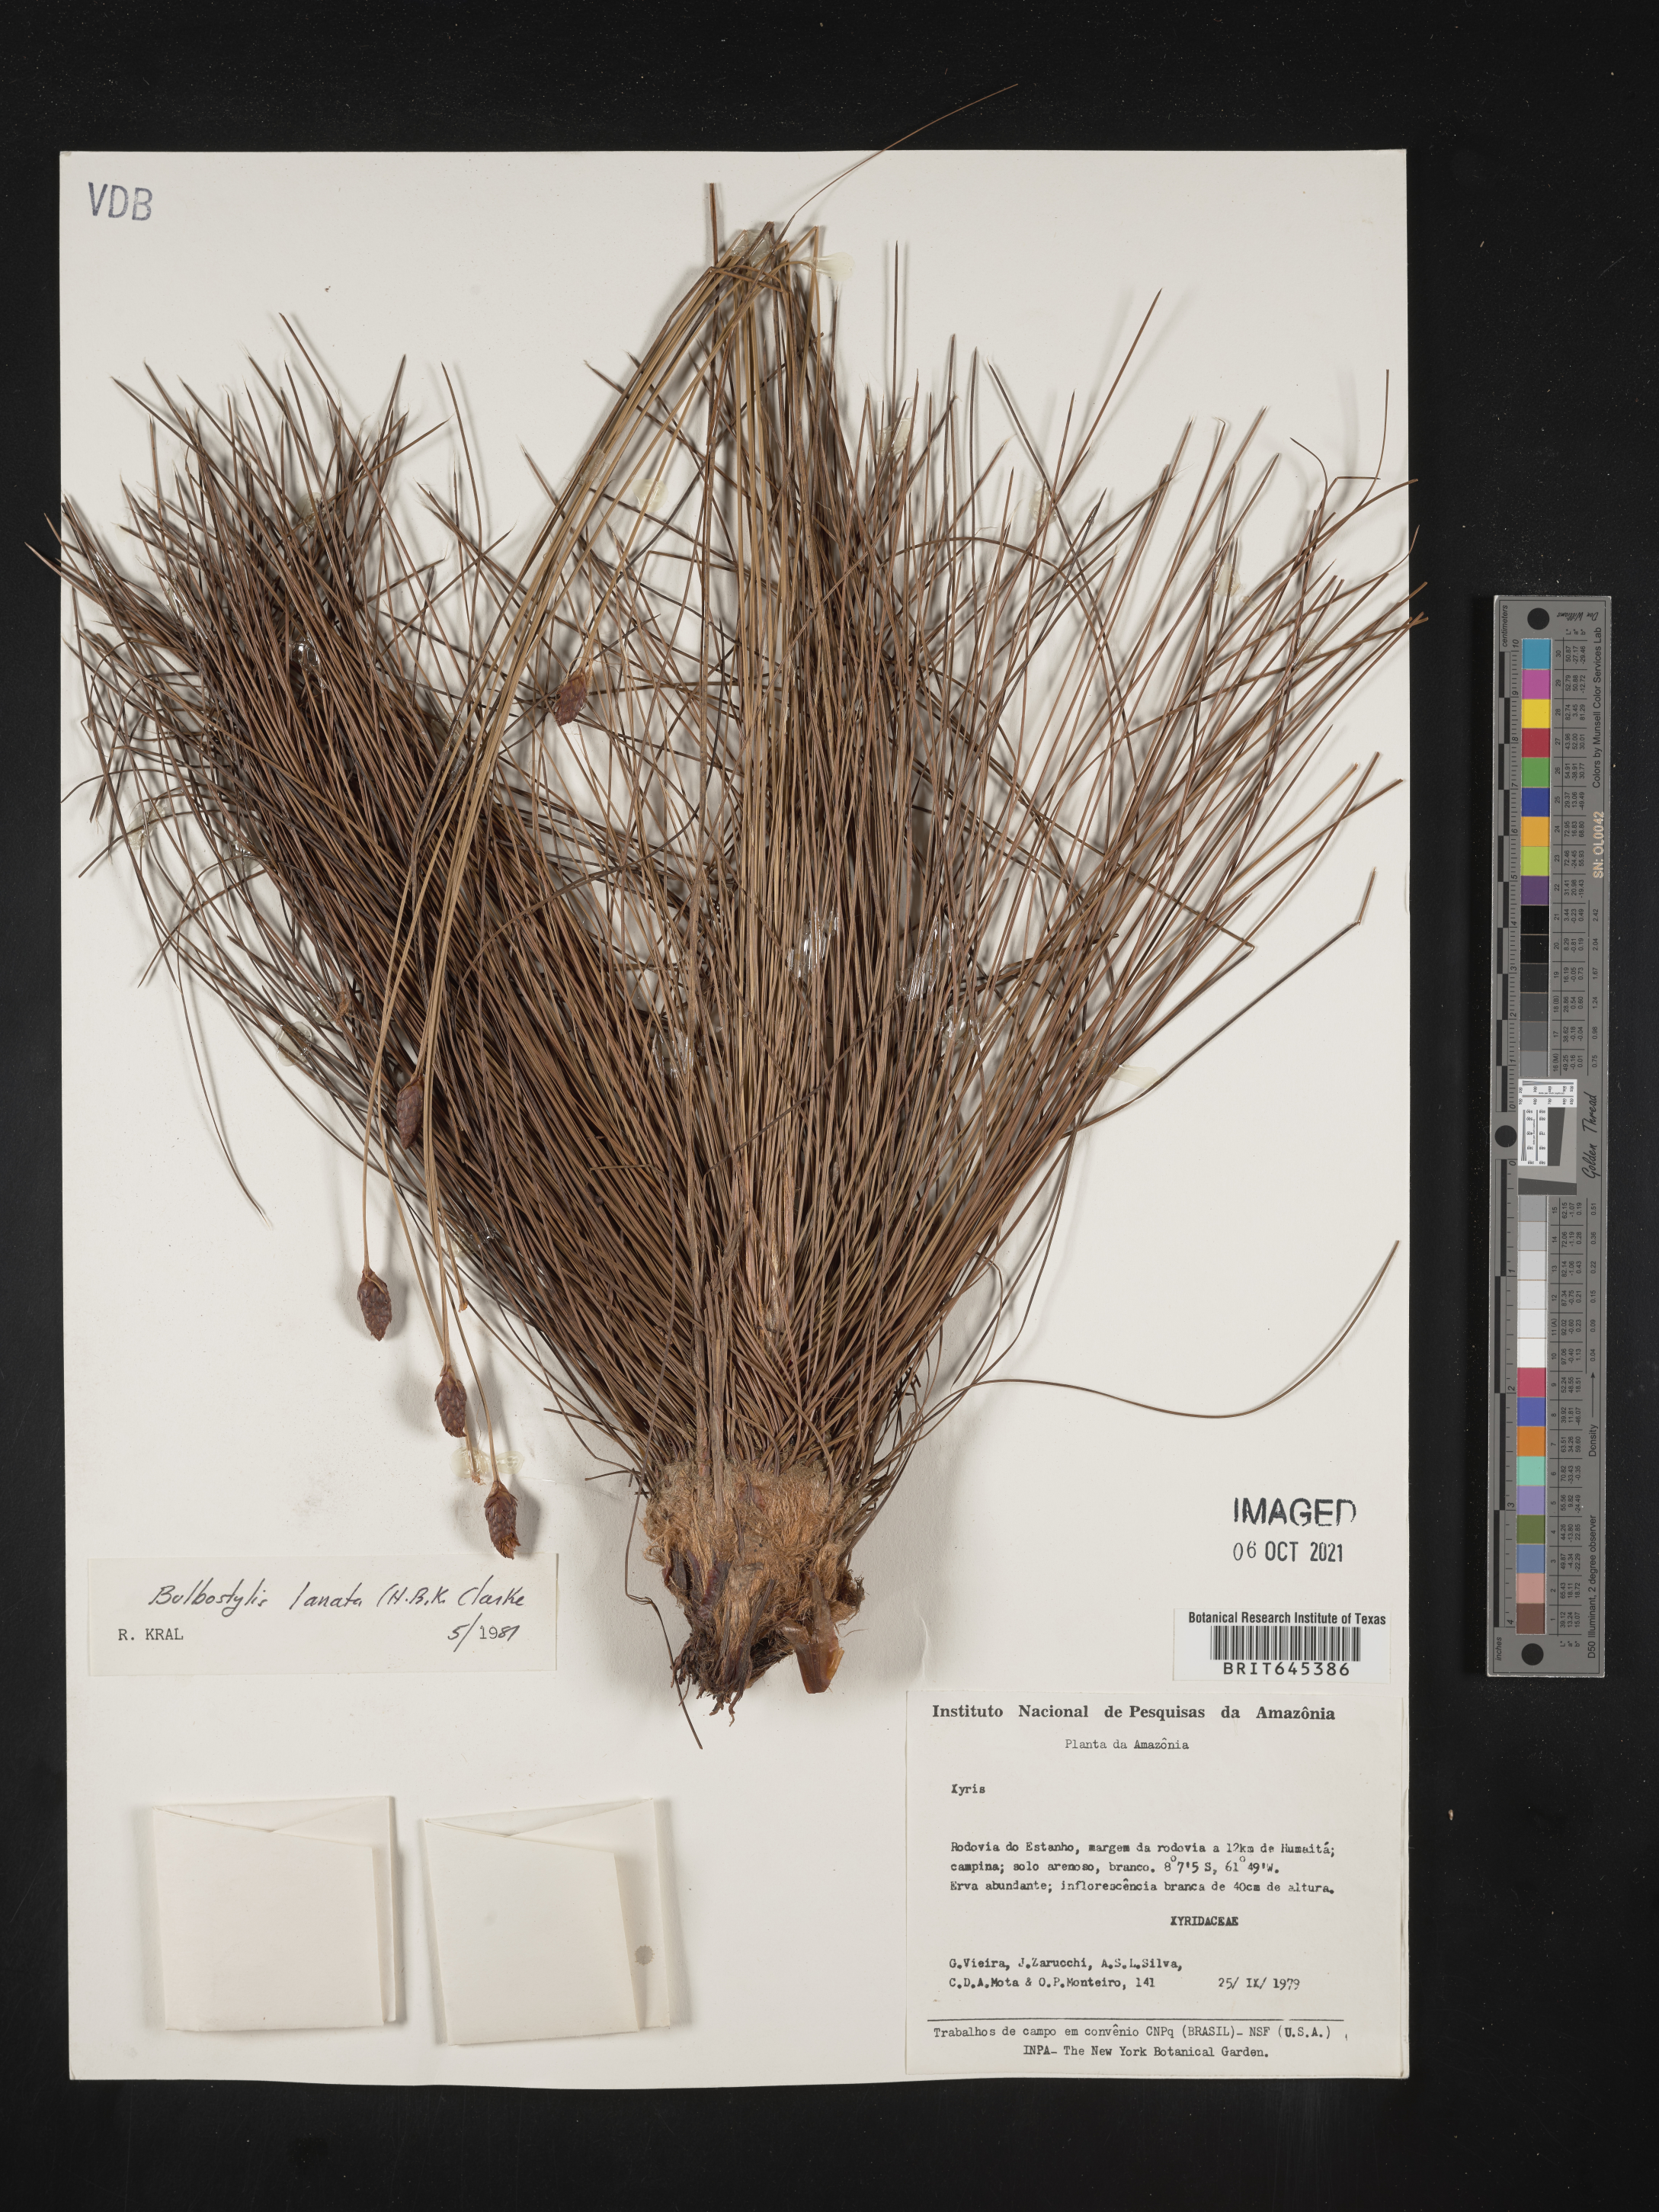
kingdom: Plantae
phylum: Tracheophyta
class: Liliopsida
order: Poales
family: Cyperaceae
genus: Bulbostylis
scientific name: Bulbostylis lanata
